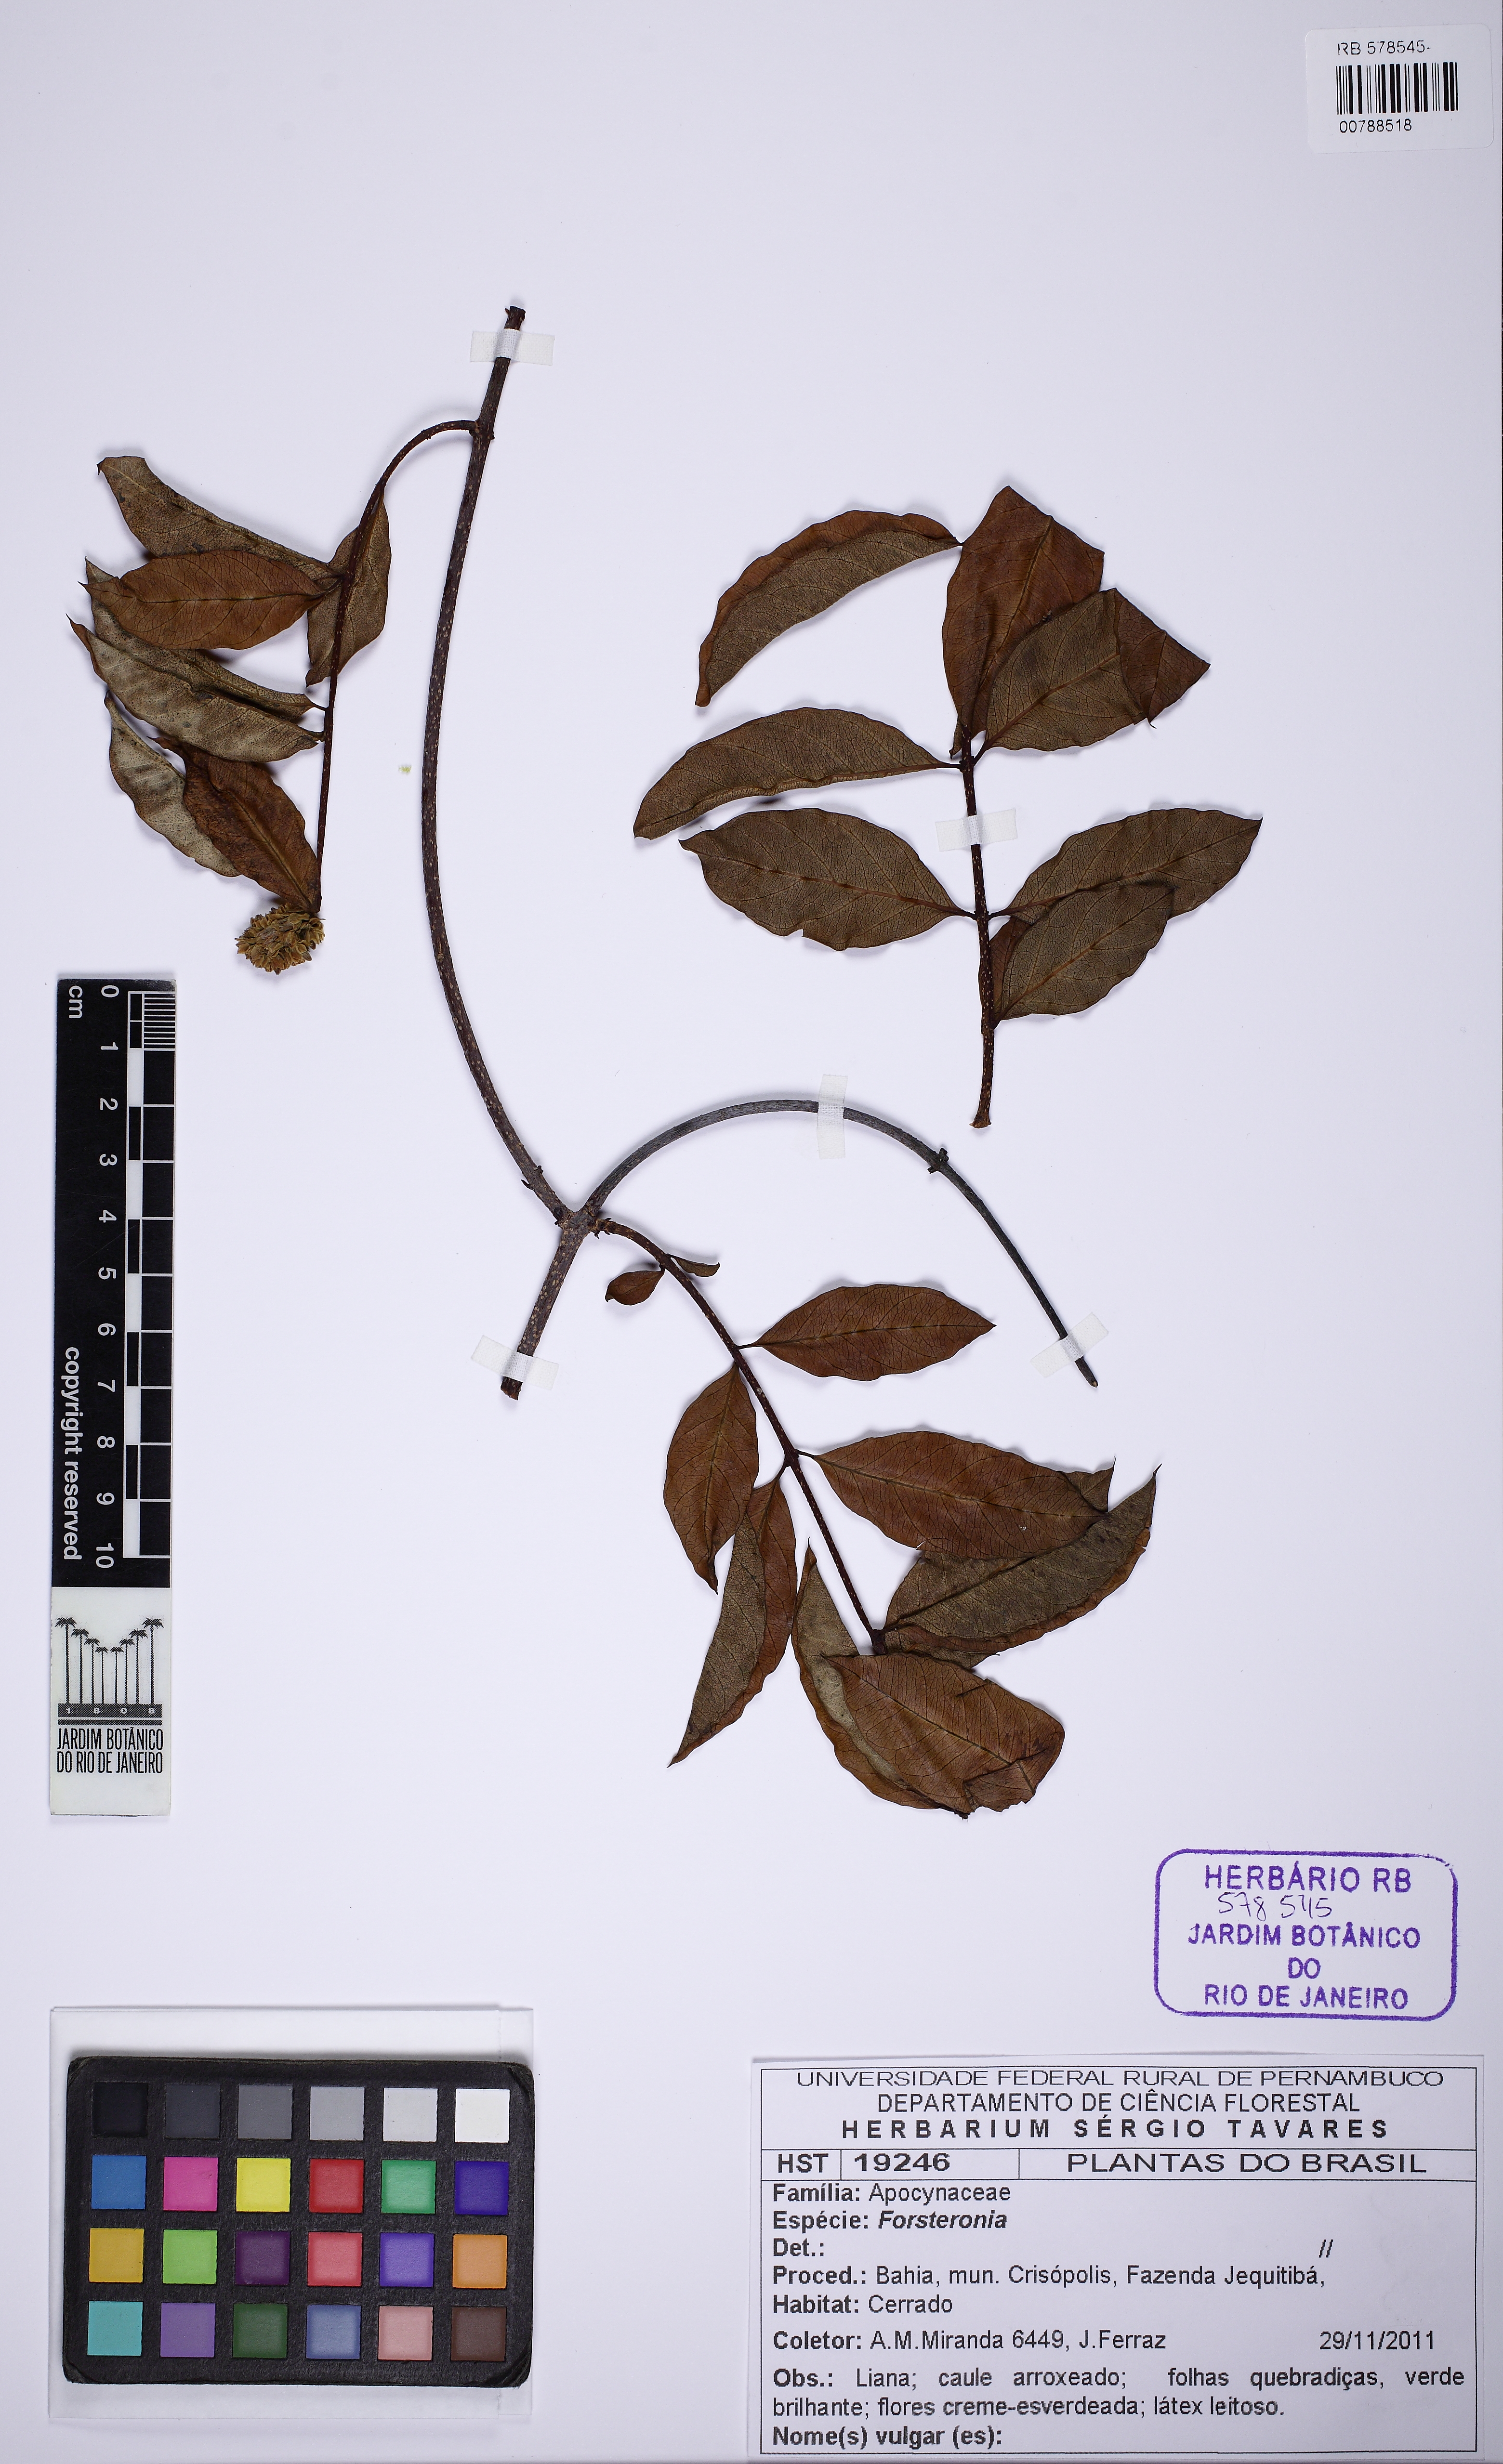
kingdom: Plantae
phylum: Tracheophyta
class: Magnoliopsida
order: Gentianales
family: Apocynaceae
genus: Forsteronia
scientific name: Forsteronia
